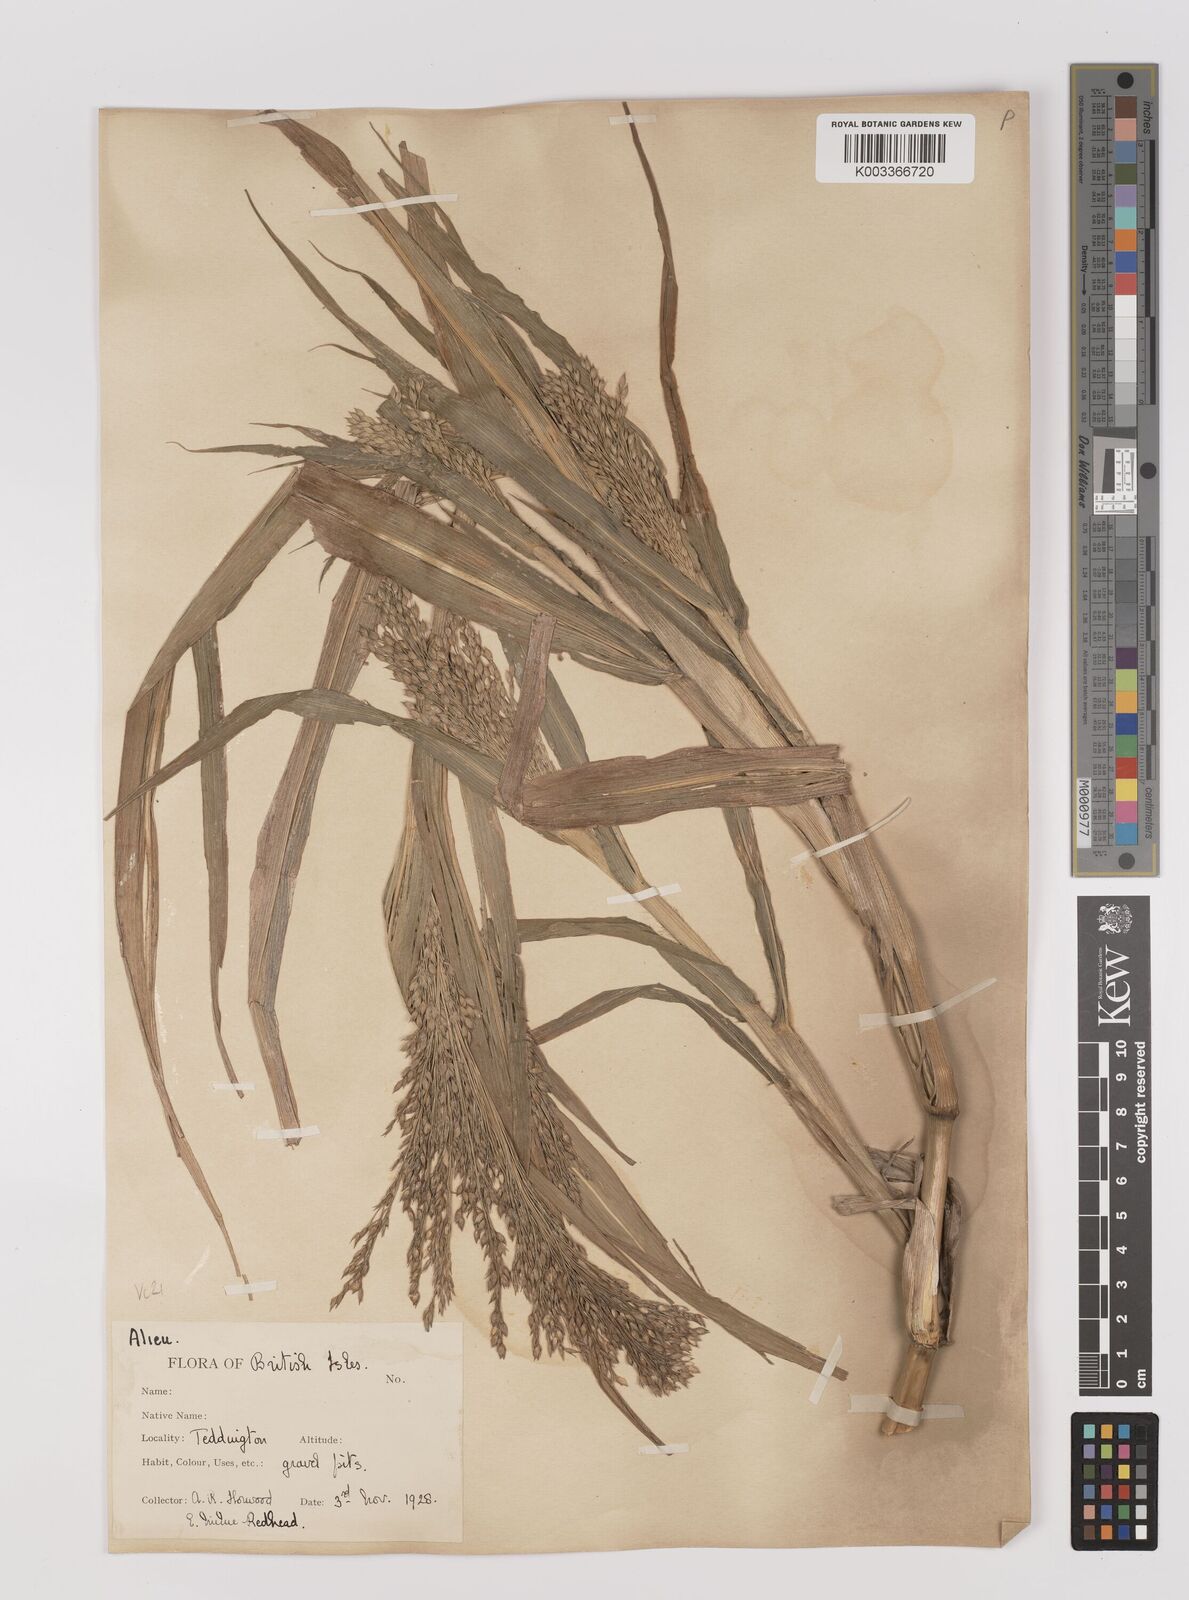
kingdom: Plantae
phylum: Tracheophyta
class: Liliopsida
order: Poales
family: Poaceae
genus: Panicum
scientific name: Panicum miliaceum
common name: Common millet
